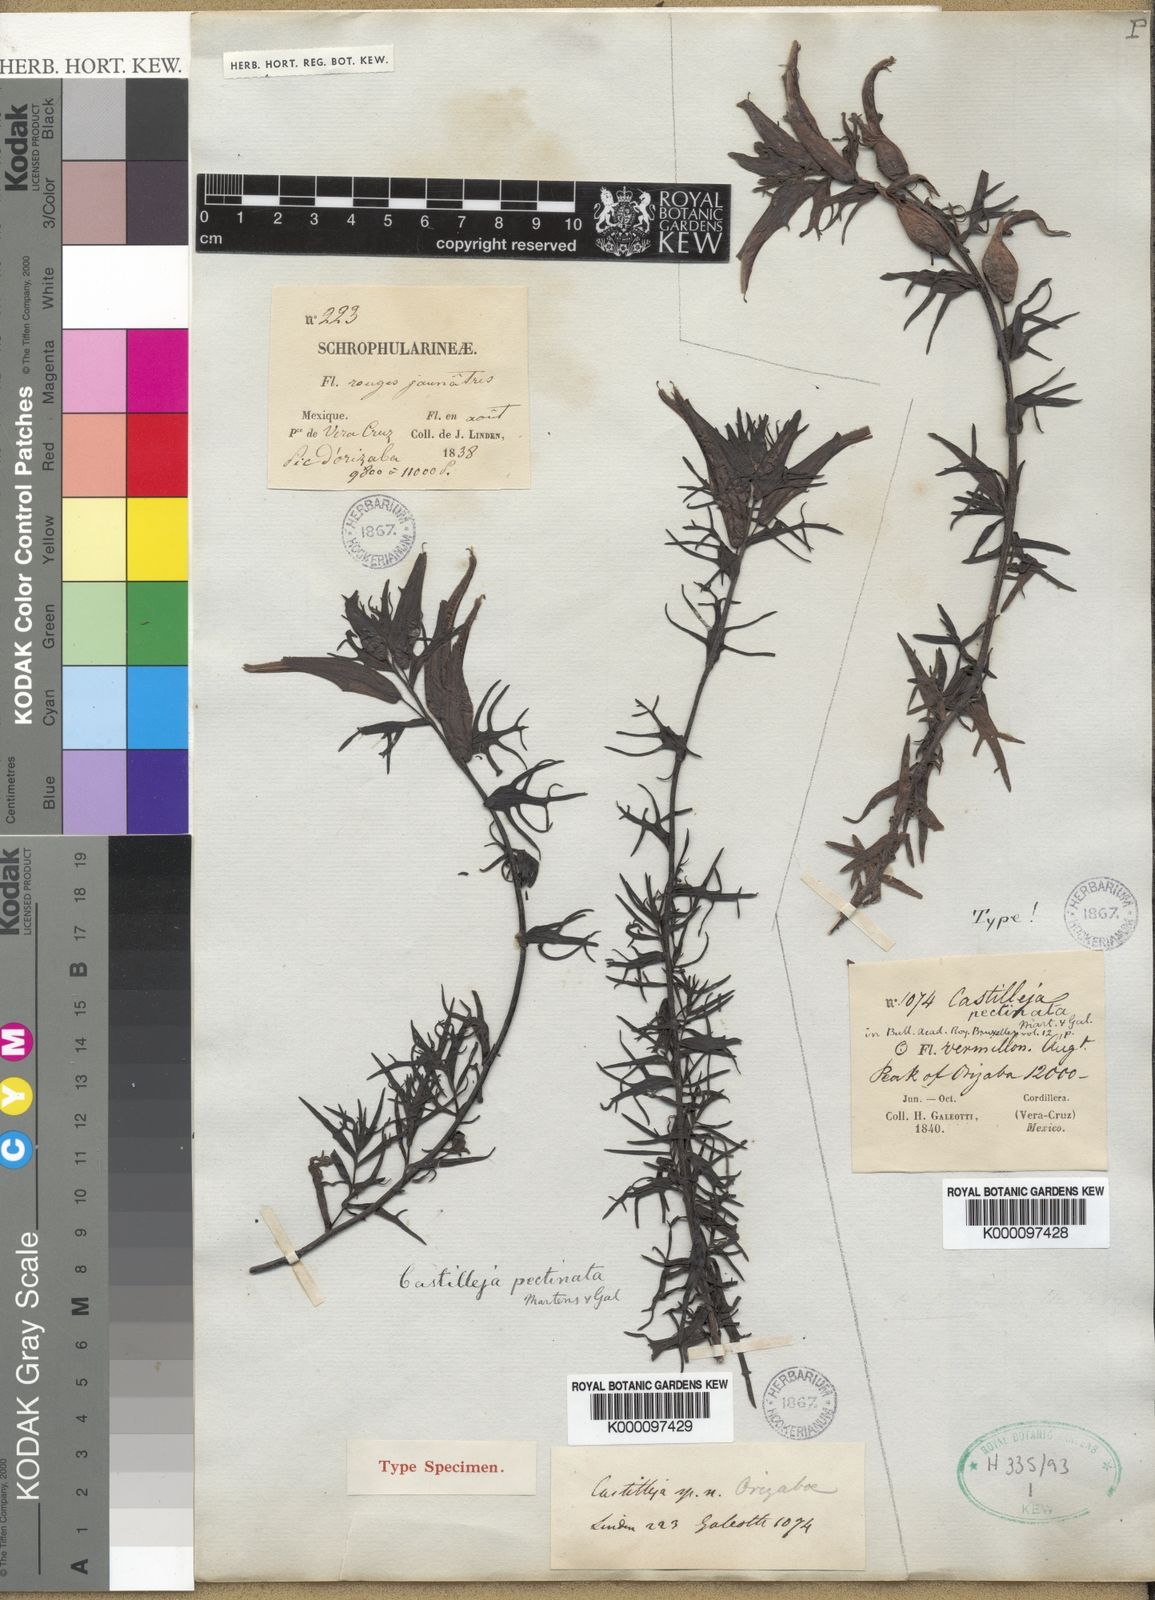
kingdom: Plantae
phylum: Tracheophyta
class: Magnoliopsida
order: Lamiales
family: Orobanchaceae
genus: Castilleja
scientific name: Castilleja pectinata
